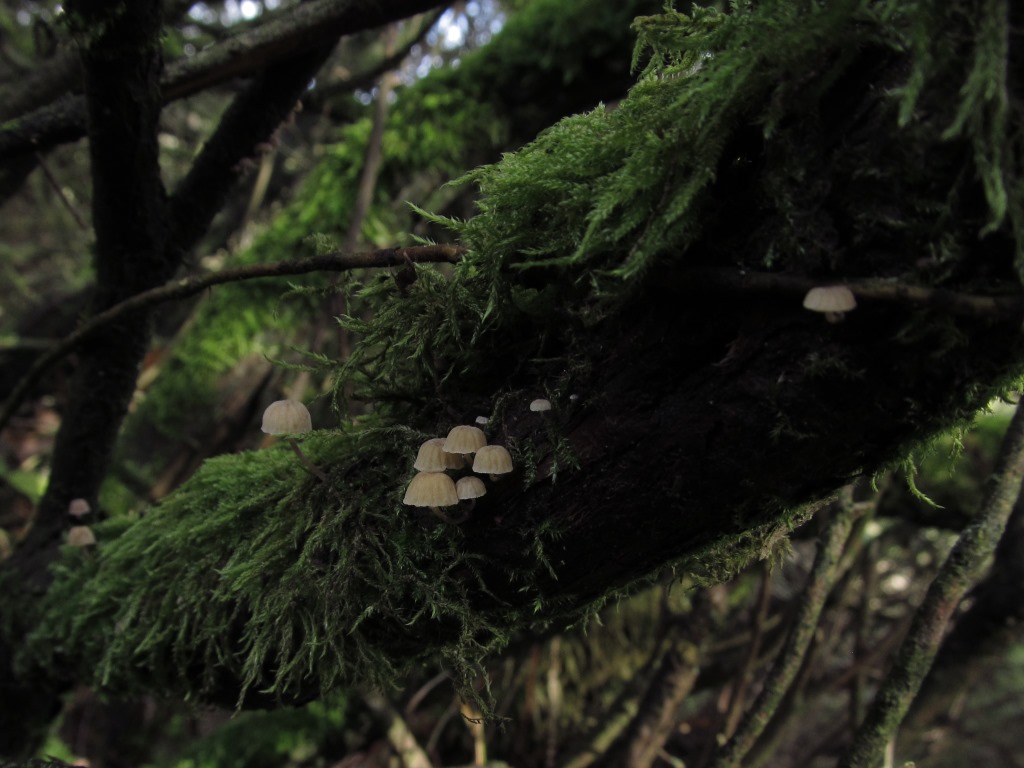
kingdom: Fungi
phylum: Basidiomycota
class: Agaricomycetes
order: Agaricales
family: Mycenaceae
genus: Mycena
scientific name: Mycena juniperina
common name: ene-Huesvamp
